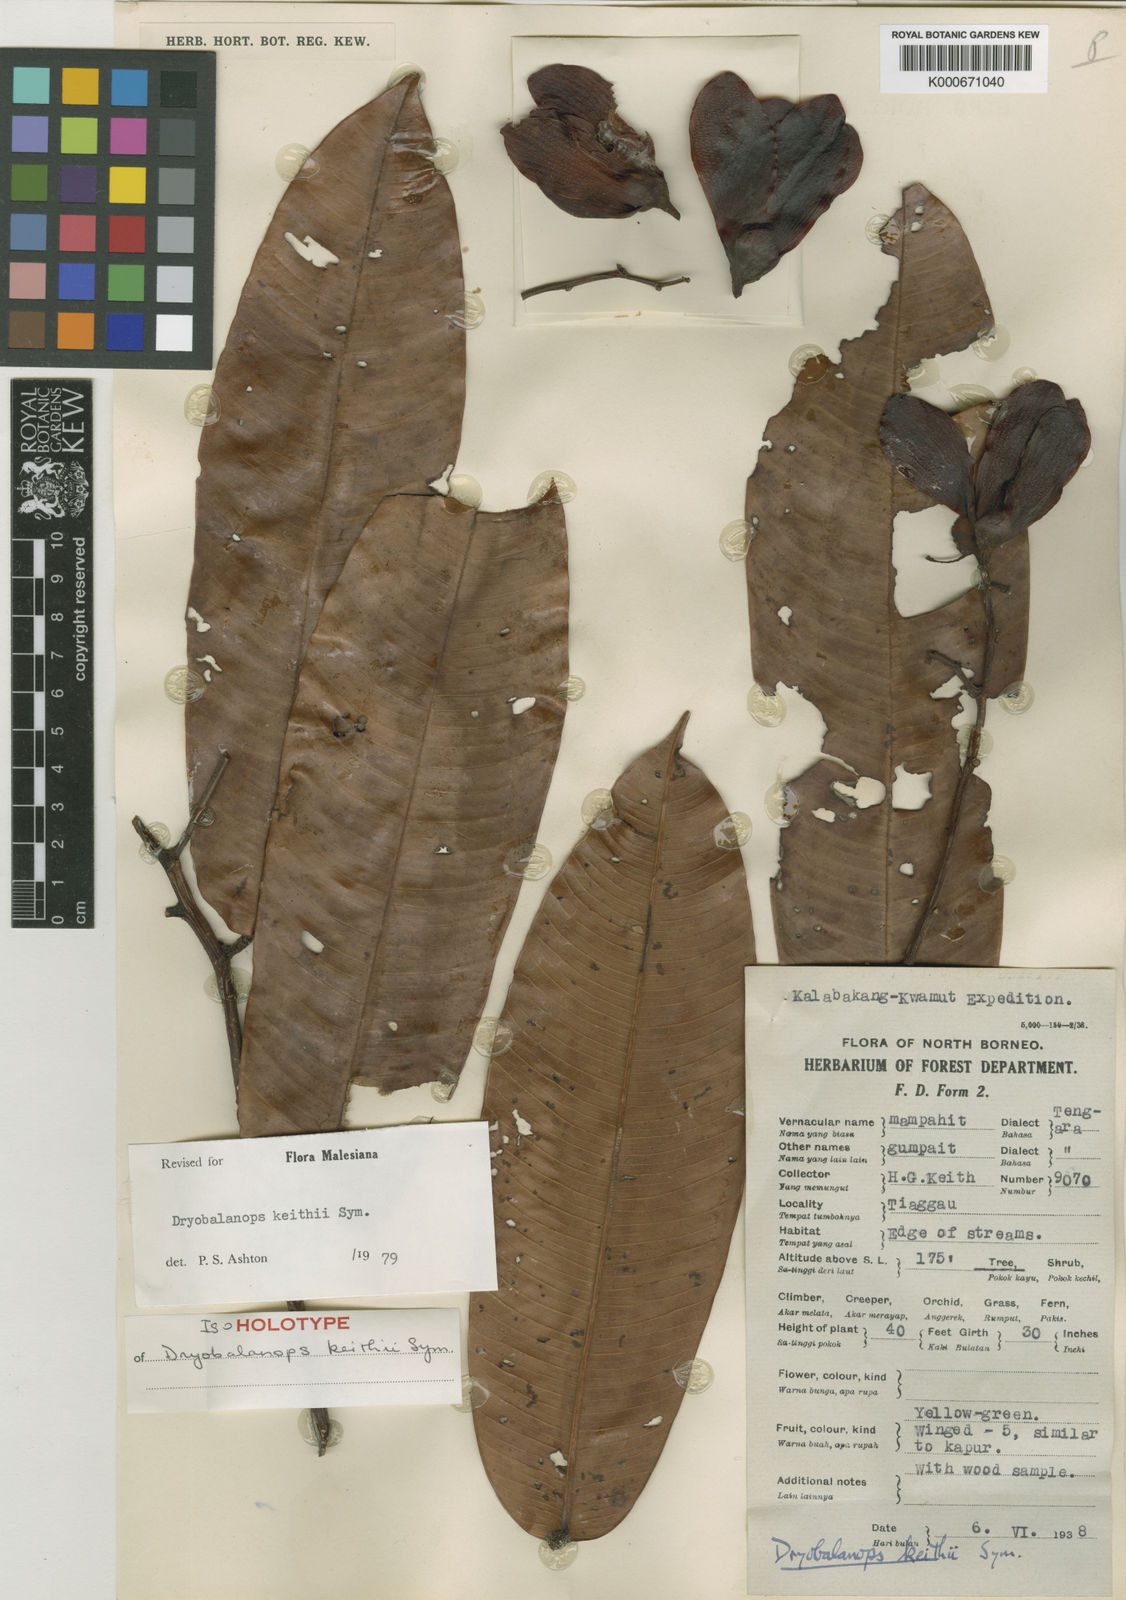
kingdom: Plantae
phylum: Tracheophyta
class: Magnoliopsida
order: Malvales
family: Dipterocarpaceae
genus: Dryobalanops
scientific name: Dryobalanops keithii
